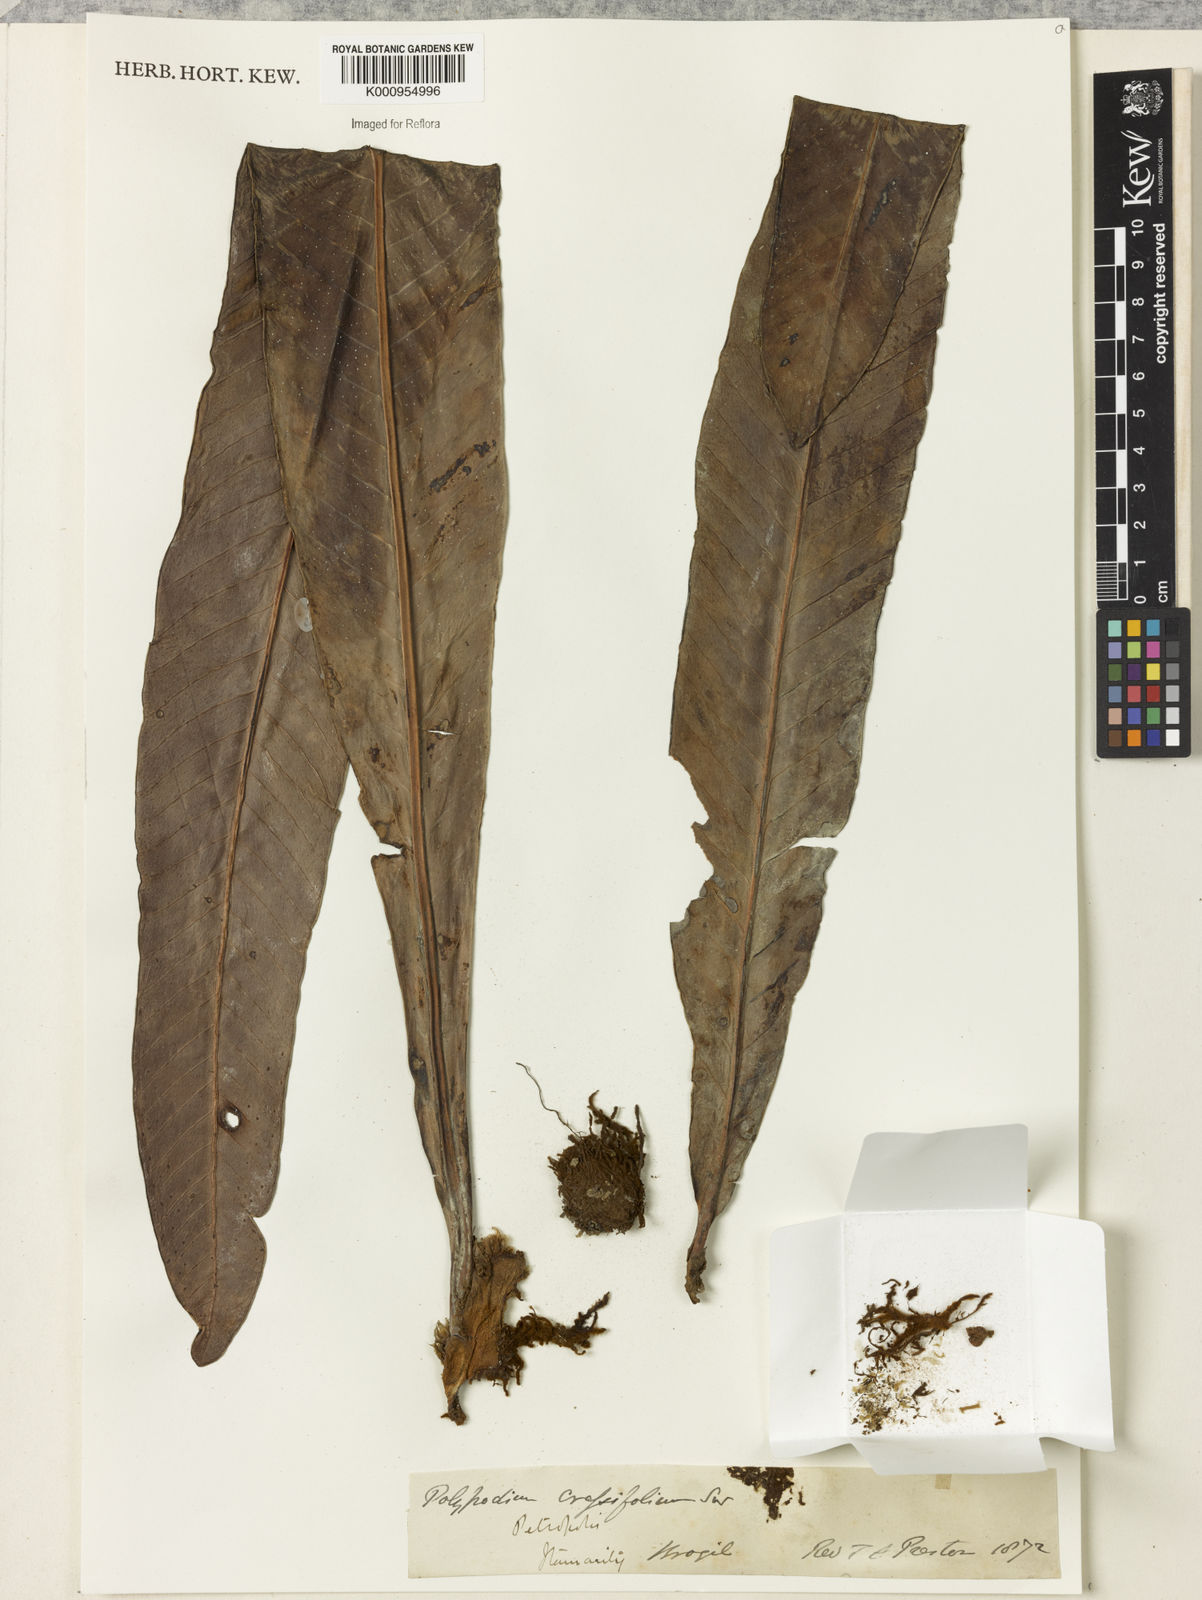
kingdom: Plantae
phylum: Tracheophyta
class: Polypodiopsida
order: Polypodiales
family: Polypodiaceae
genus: Niphidium
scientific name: Niphidium crassifolium
